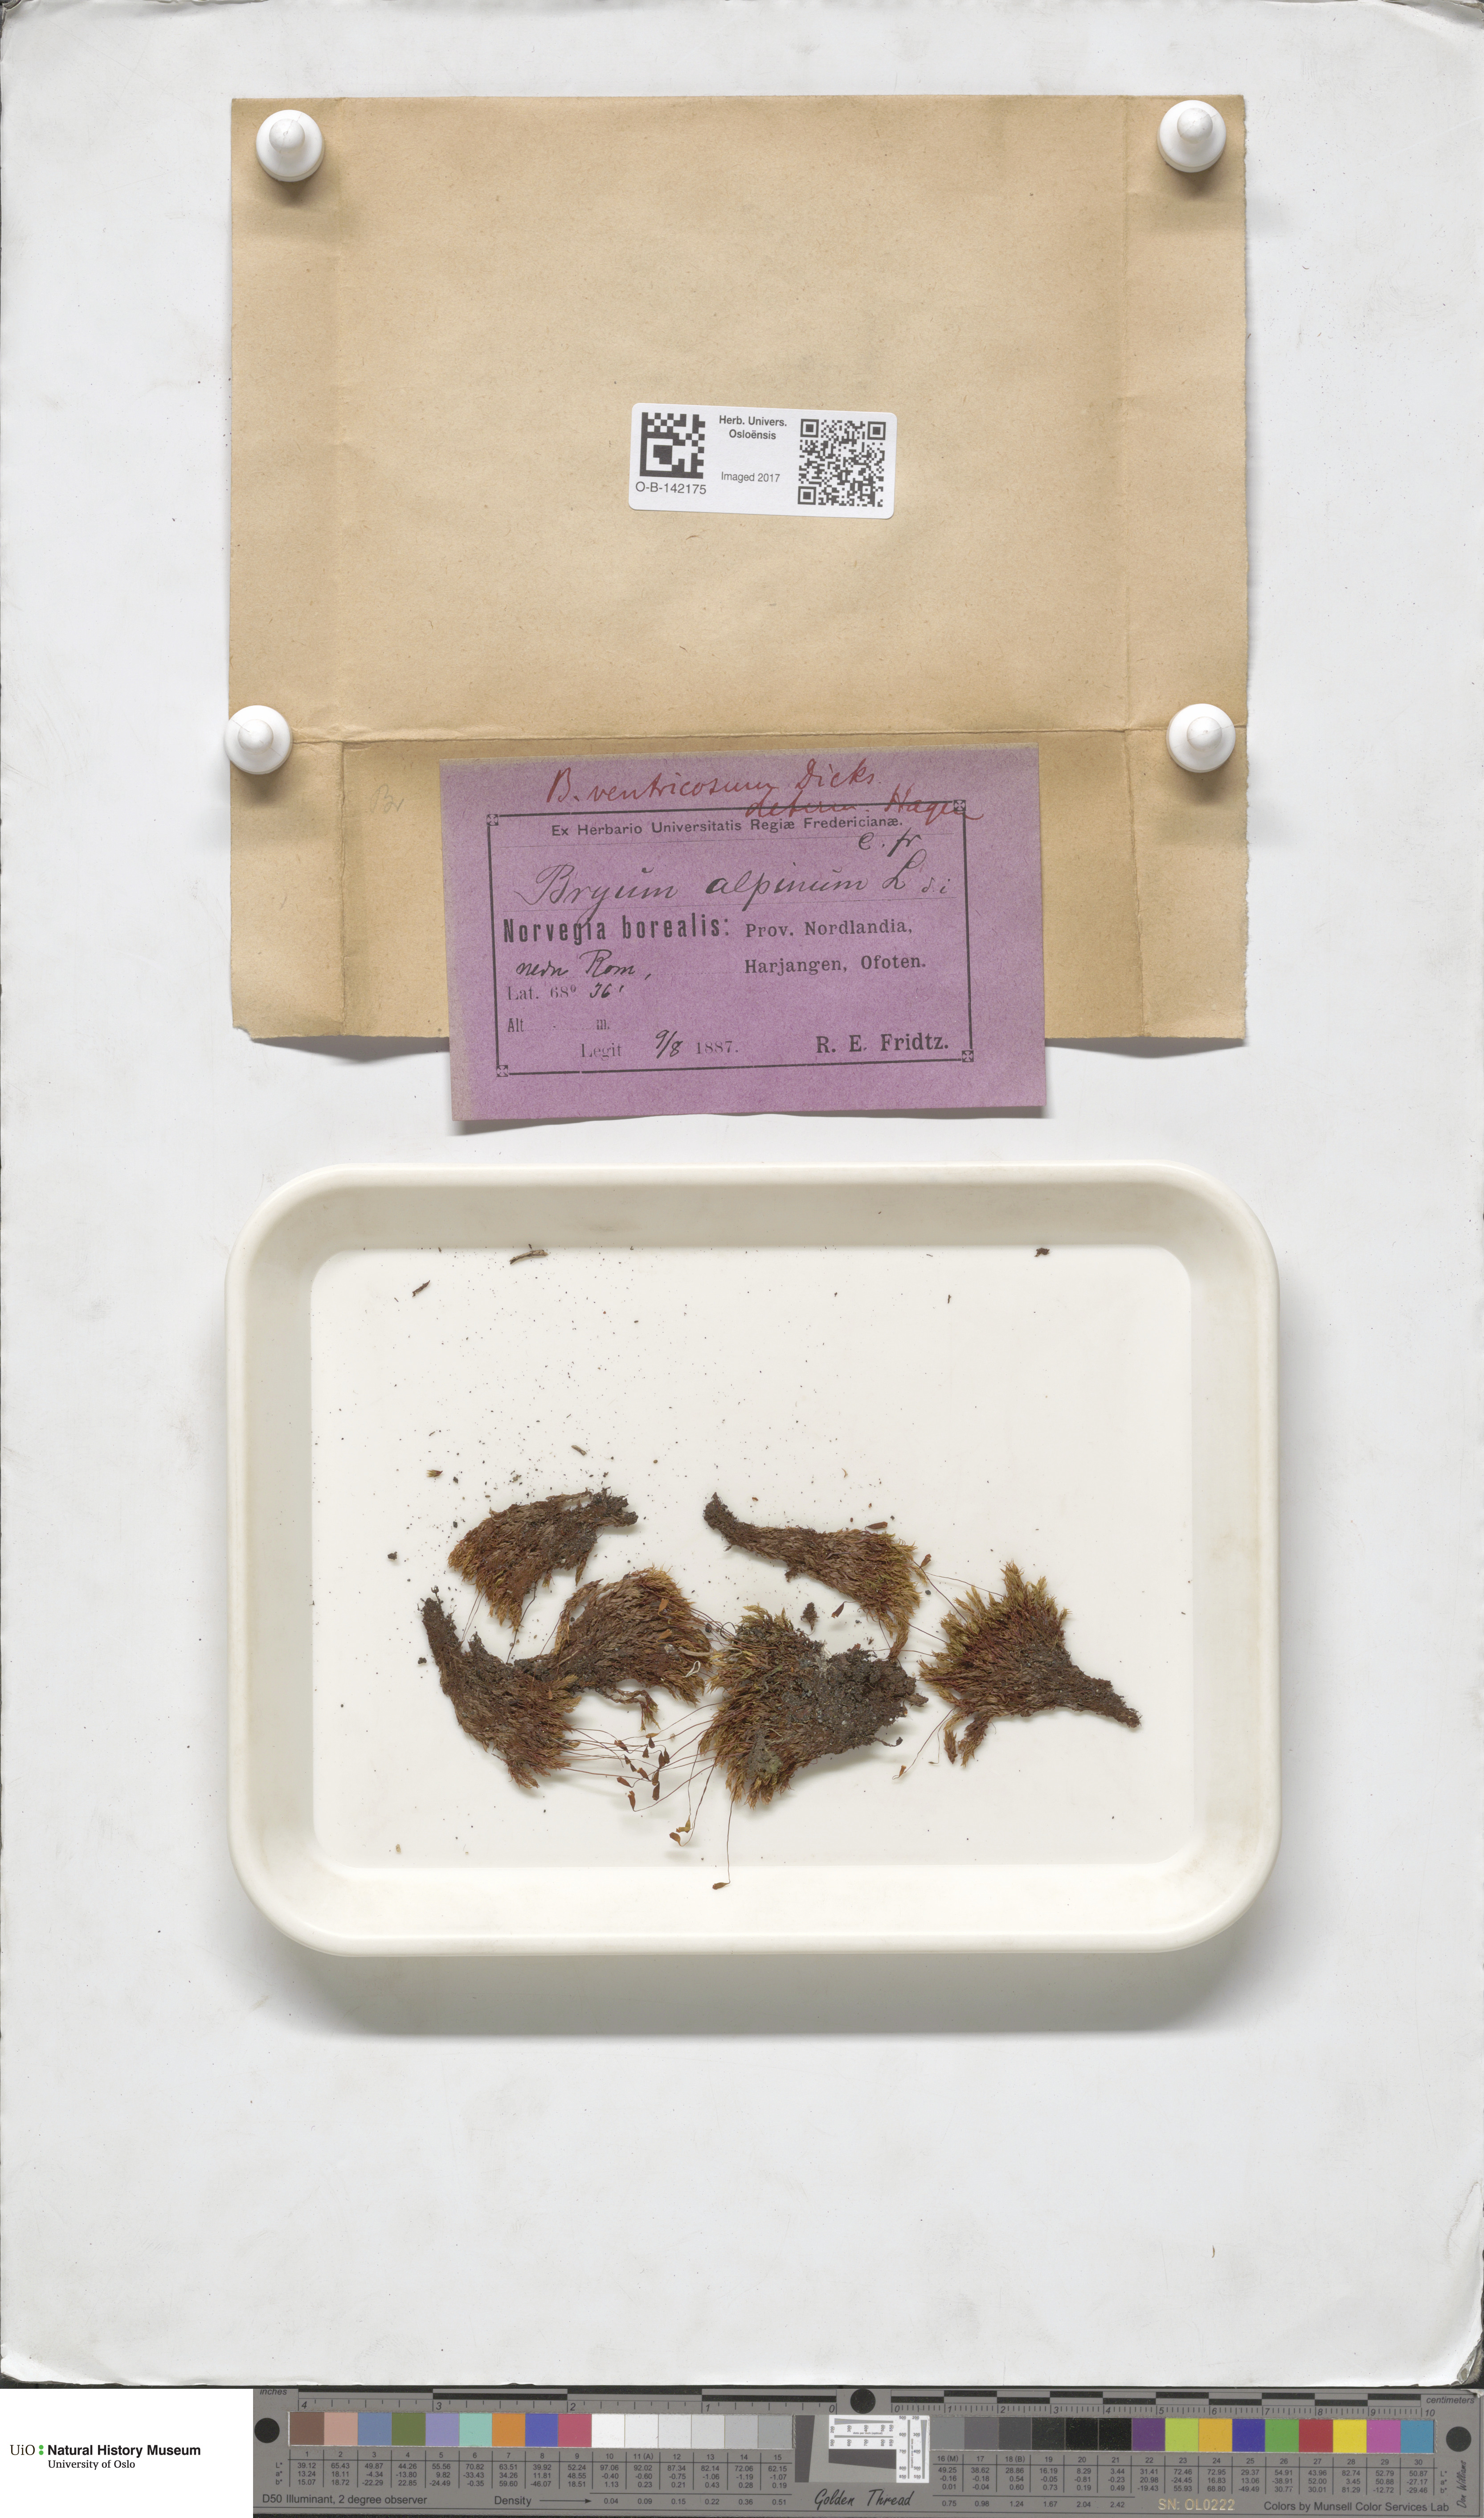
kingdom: Plantae
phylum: Bryophyta
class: Bryopsida
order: Bryales
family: Bryaceae
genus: Ptychostomum
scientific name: Ptychostomum pseudotriquetrum
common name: Long-leaved thread moss
